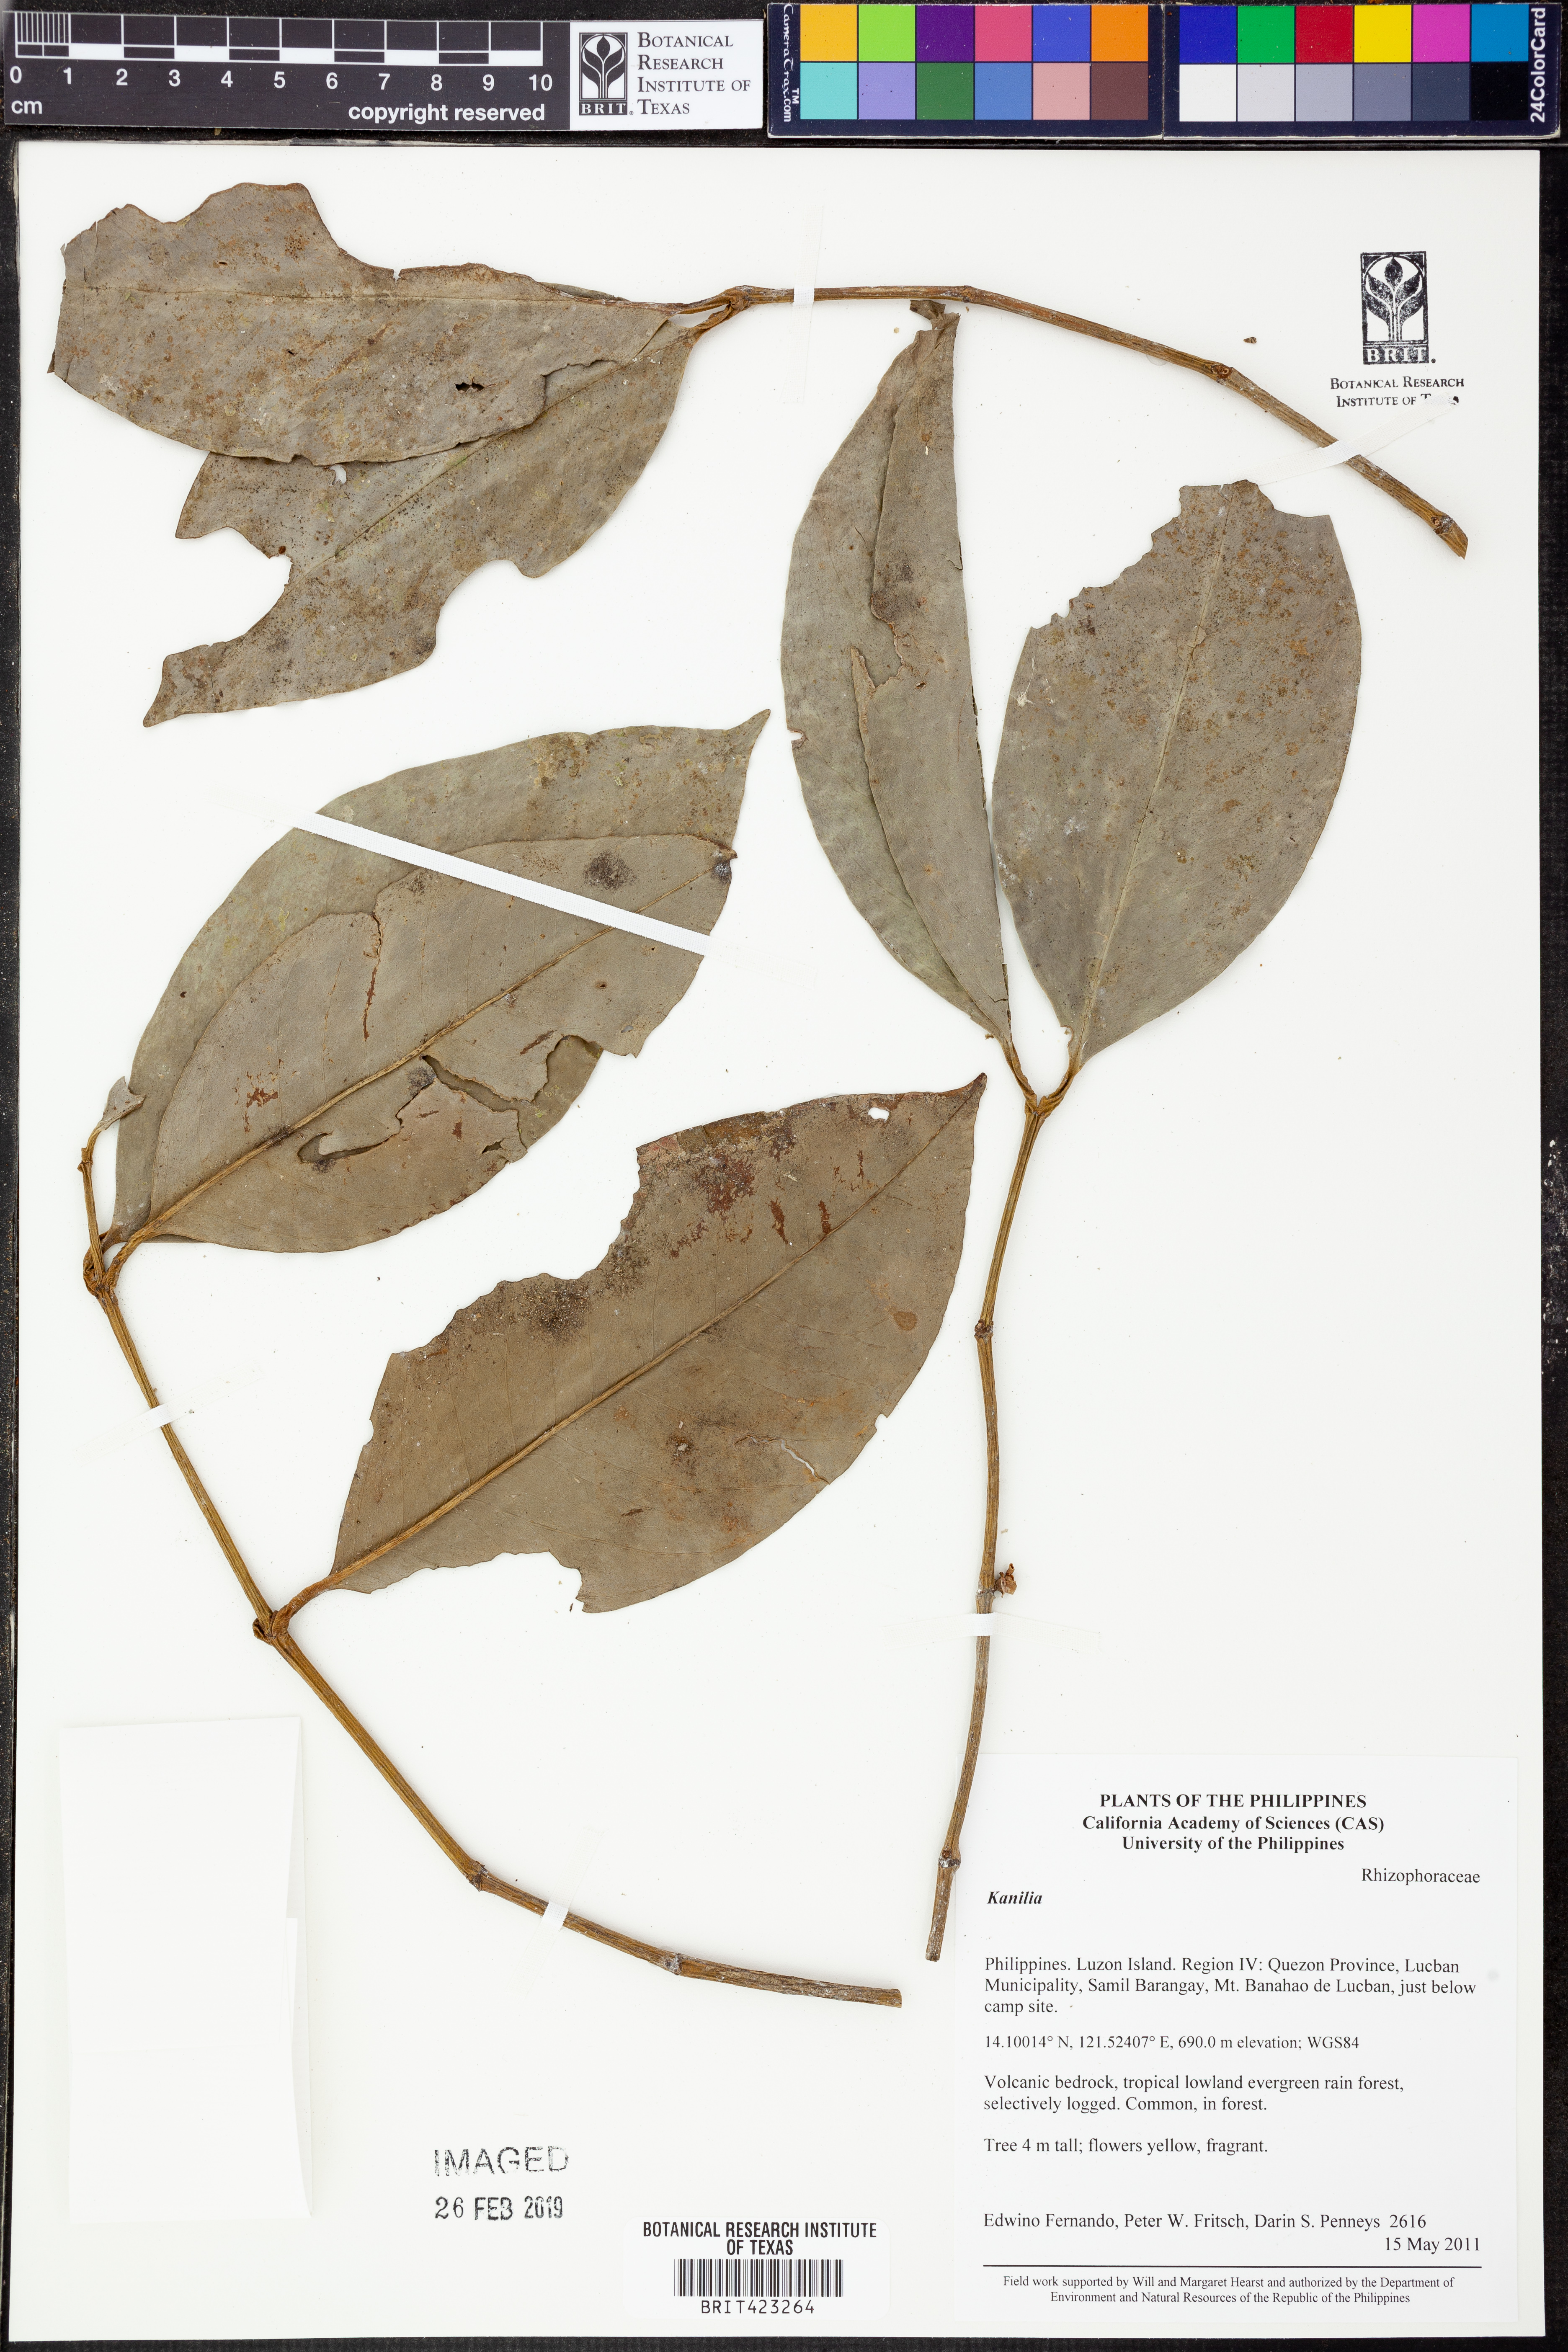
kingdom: Plantae
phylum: Tracheophyta
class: Magnoliopsida
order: Malpighiales
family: Rhizophoraceae
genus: Bruguiera
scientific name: Bruguiera
